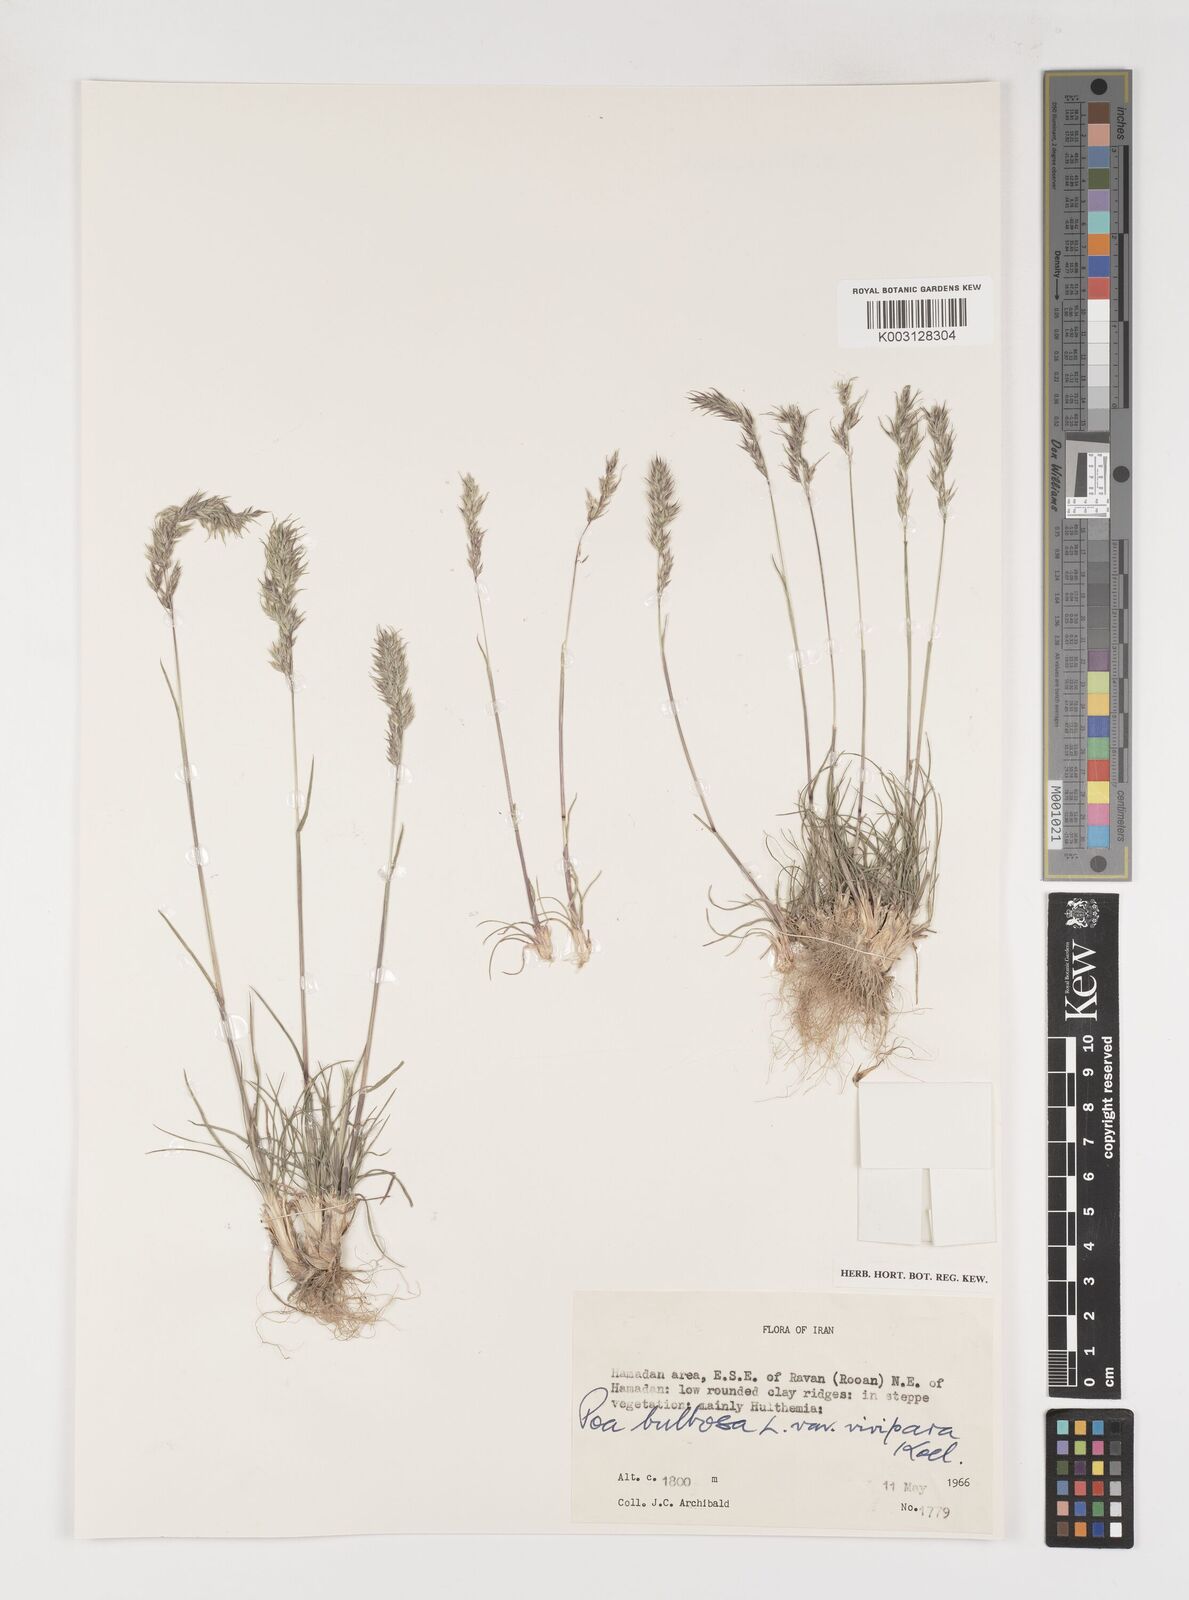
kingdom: Plantae
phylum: Tracheophyta
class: Liliopsida
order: Poales
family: Poaceae
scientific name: Poaceae
